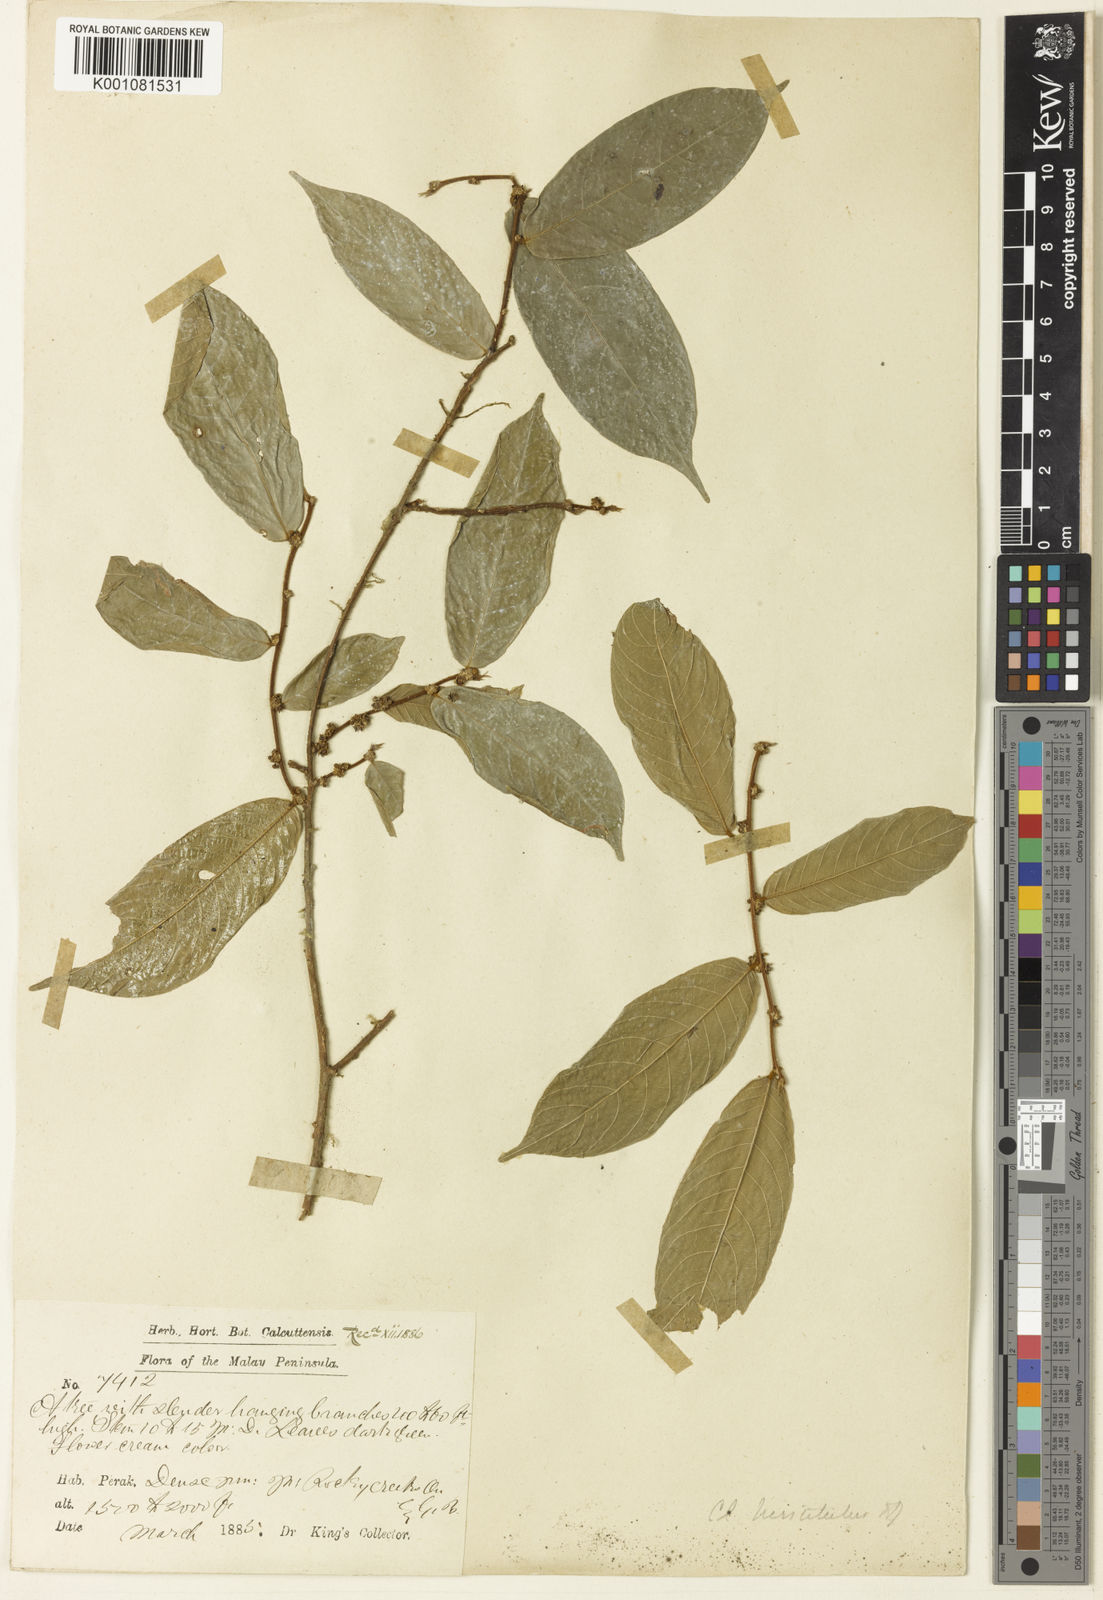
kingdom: Plantae
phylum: Tracheophyta
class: Magnoliopsida
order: Malpighiales
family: Phyllanthaceae
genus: Cleistanthus
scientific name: Cleistanthus hirsutulus
